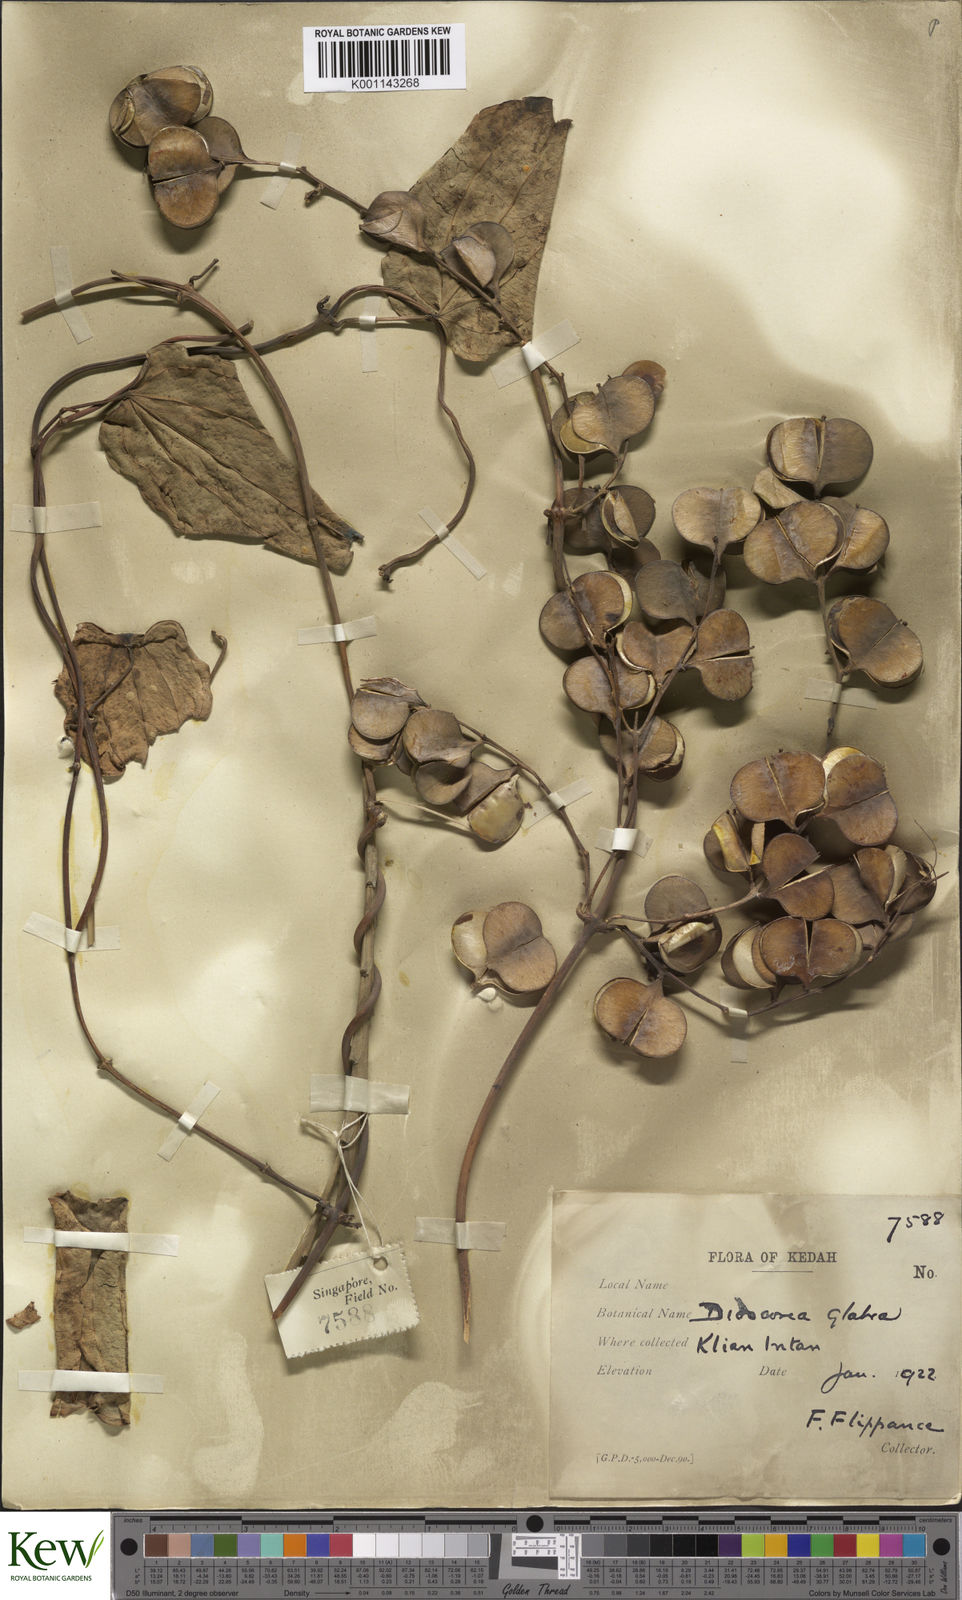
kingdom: Plantae
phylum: Tracheophyta
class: Liliopsida
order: Dioscoreales
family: Dioscoreaceae
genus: Dioscorea
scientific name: Dioscorea glabra
